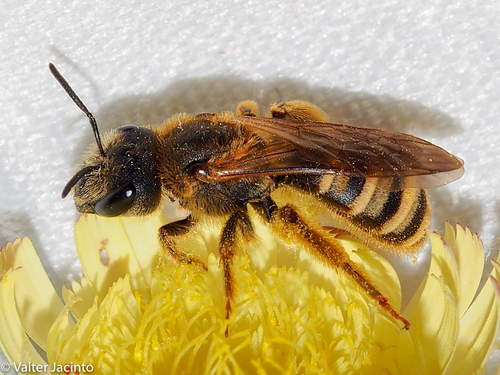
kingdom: Animalia
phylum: Arthropoda
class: Insecta
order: Hymenoptera
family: Halictidae
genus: Halictus
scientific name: Halictus scabiosae
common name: Great banded furrow bee
